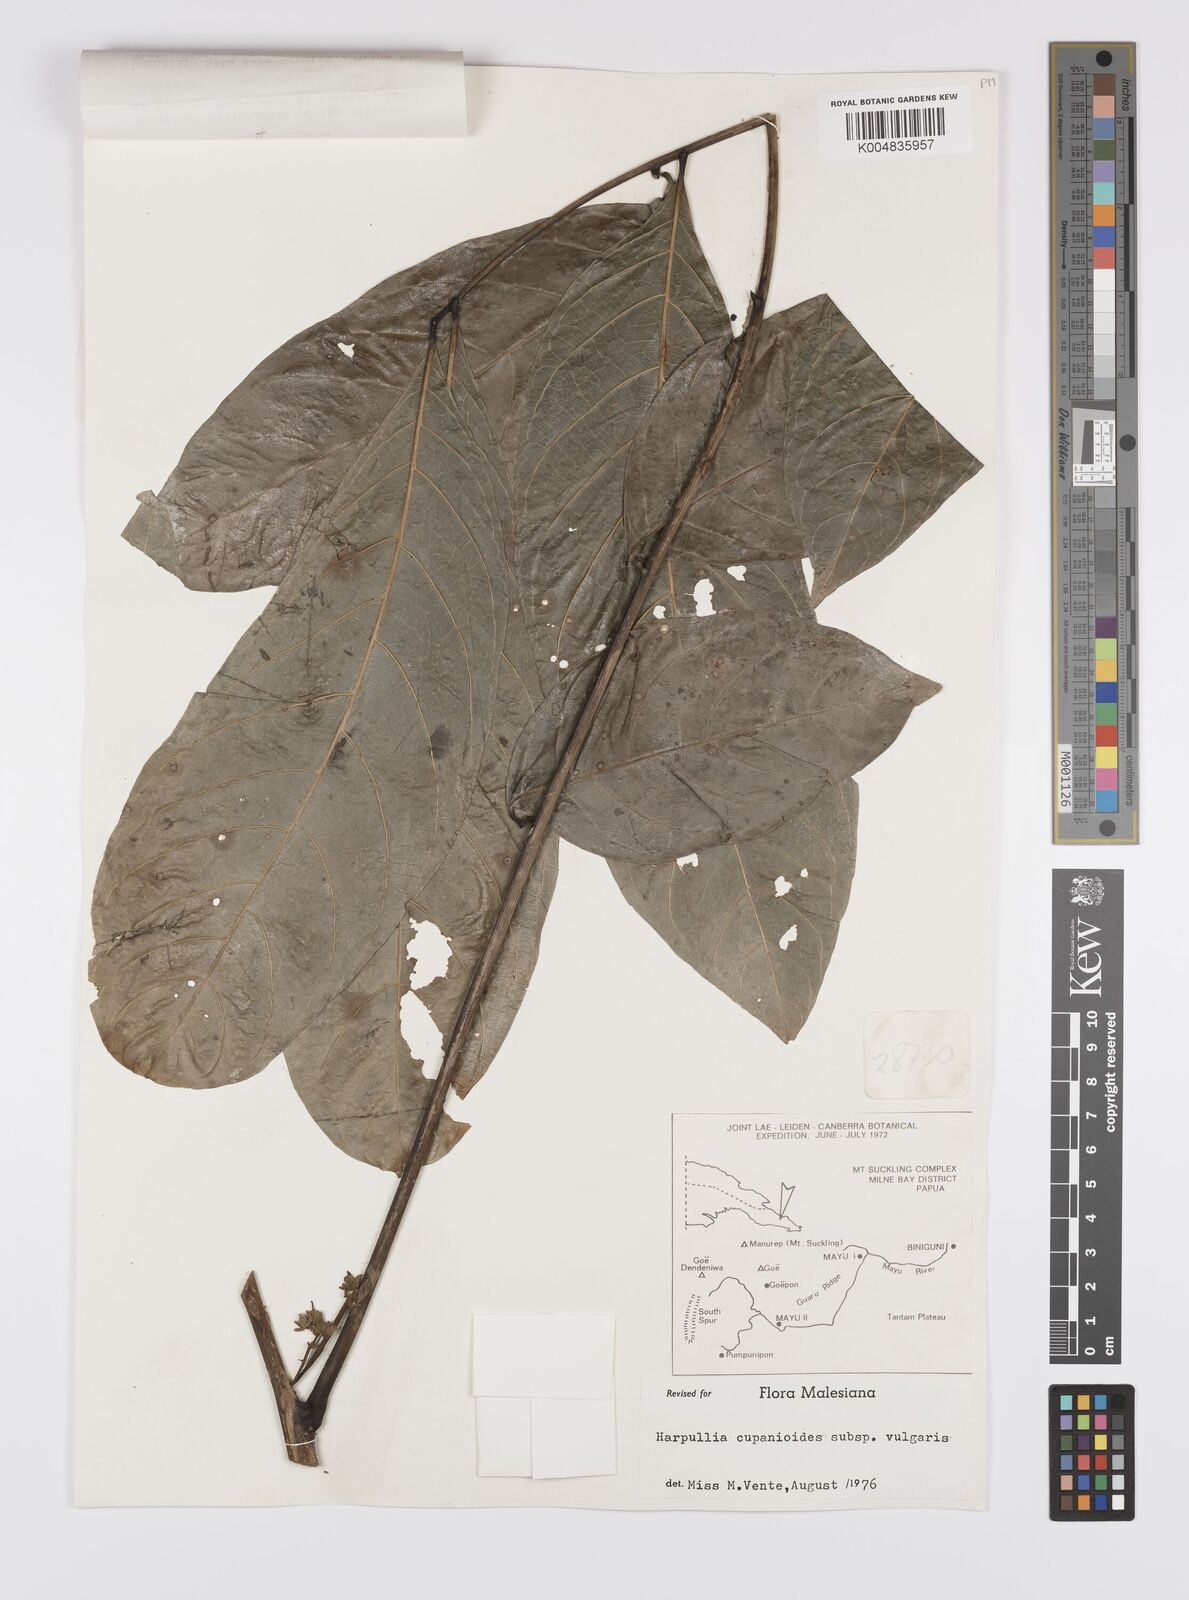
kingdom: Plantae
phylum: Tracheophyta
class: Magnoliopsida
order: Sapindales
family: Sapindaceae
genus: Harpullia
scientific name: Harpullia cupanioides
